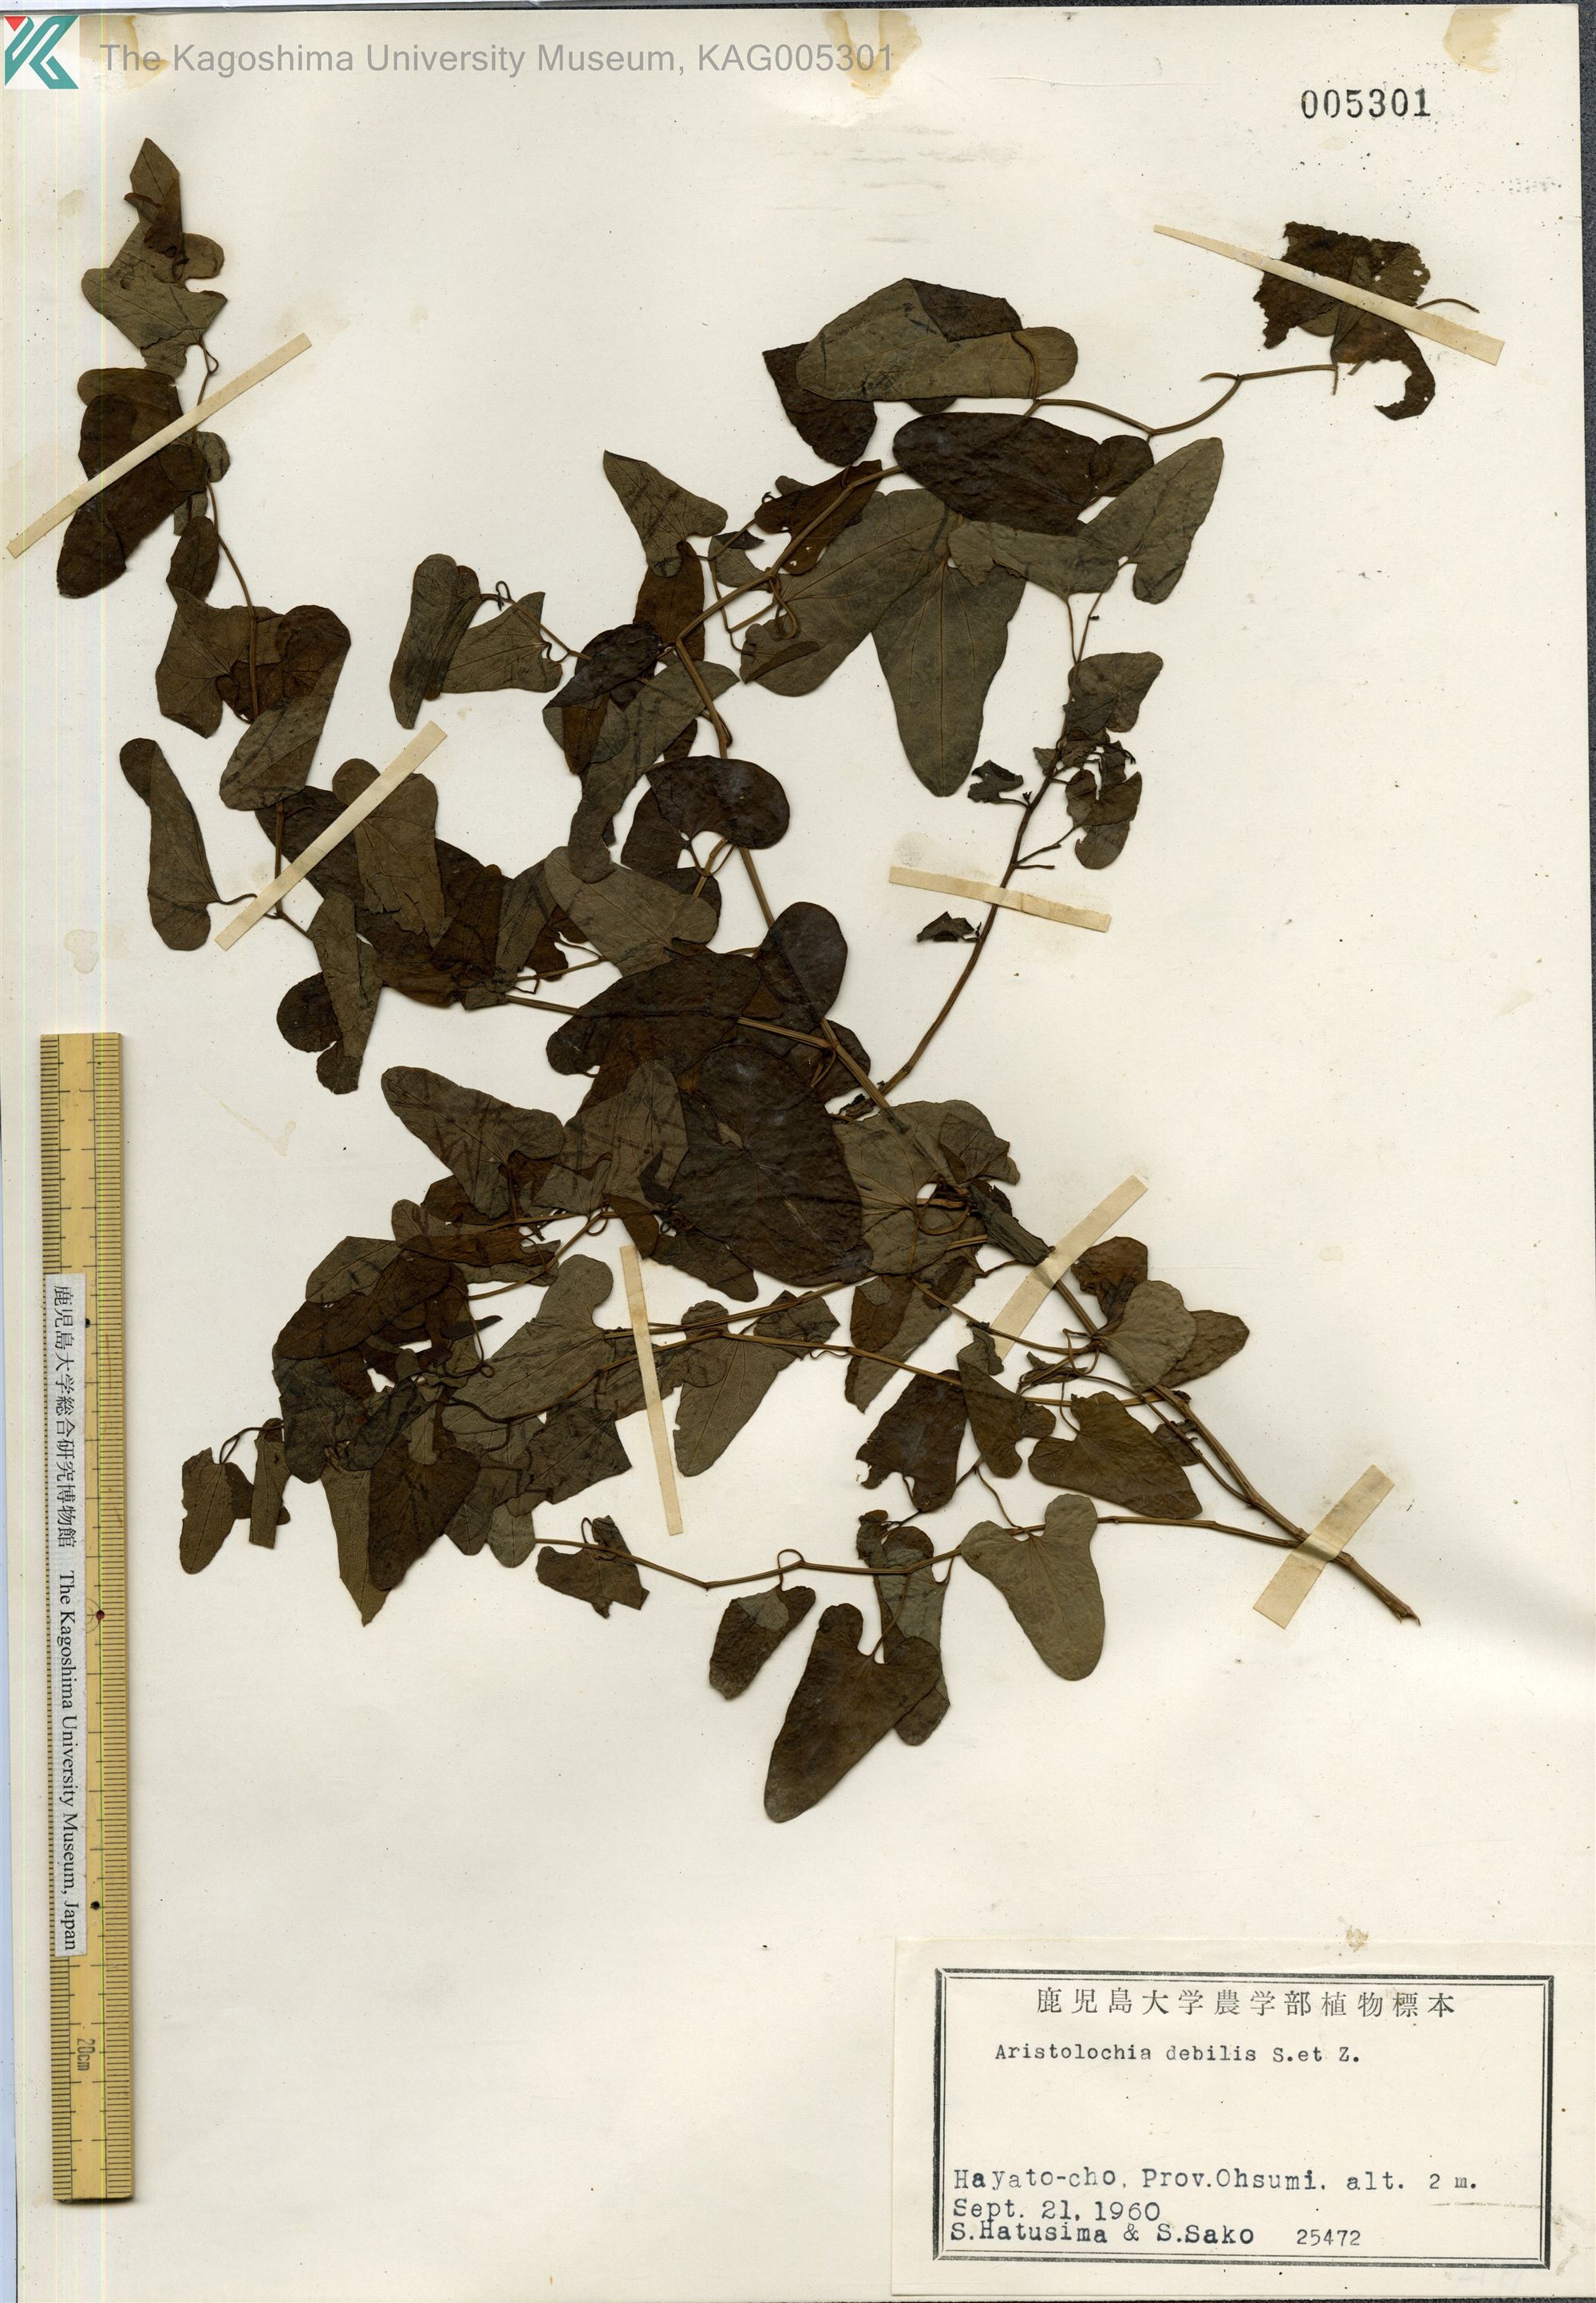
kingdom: Plantae
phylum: Tracheophyta
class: Magnoliopsida
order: Piperales
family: Aristolochiaceae
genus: Aristolochia
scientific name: Aristolochia debilis
